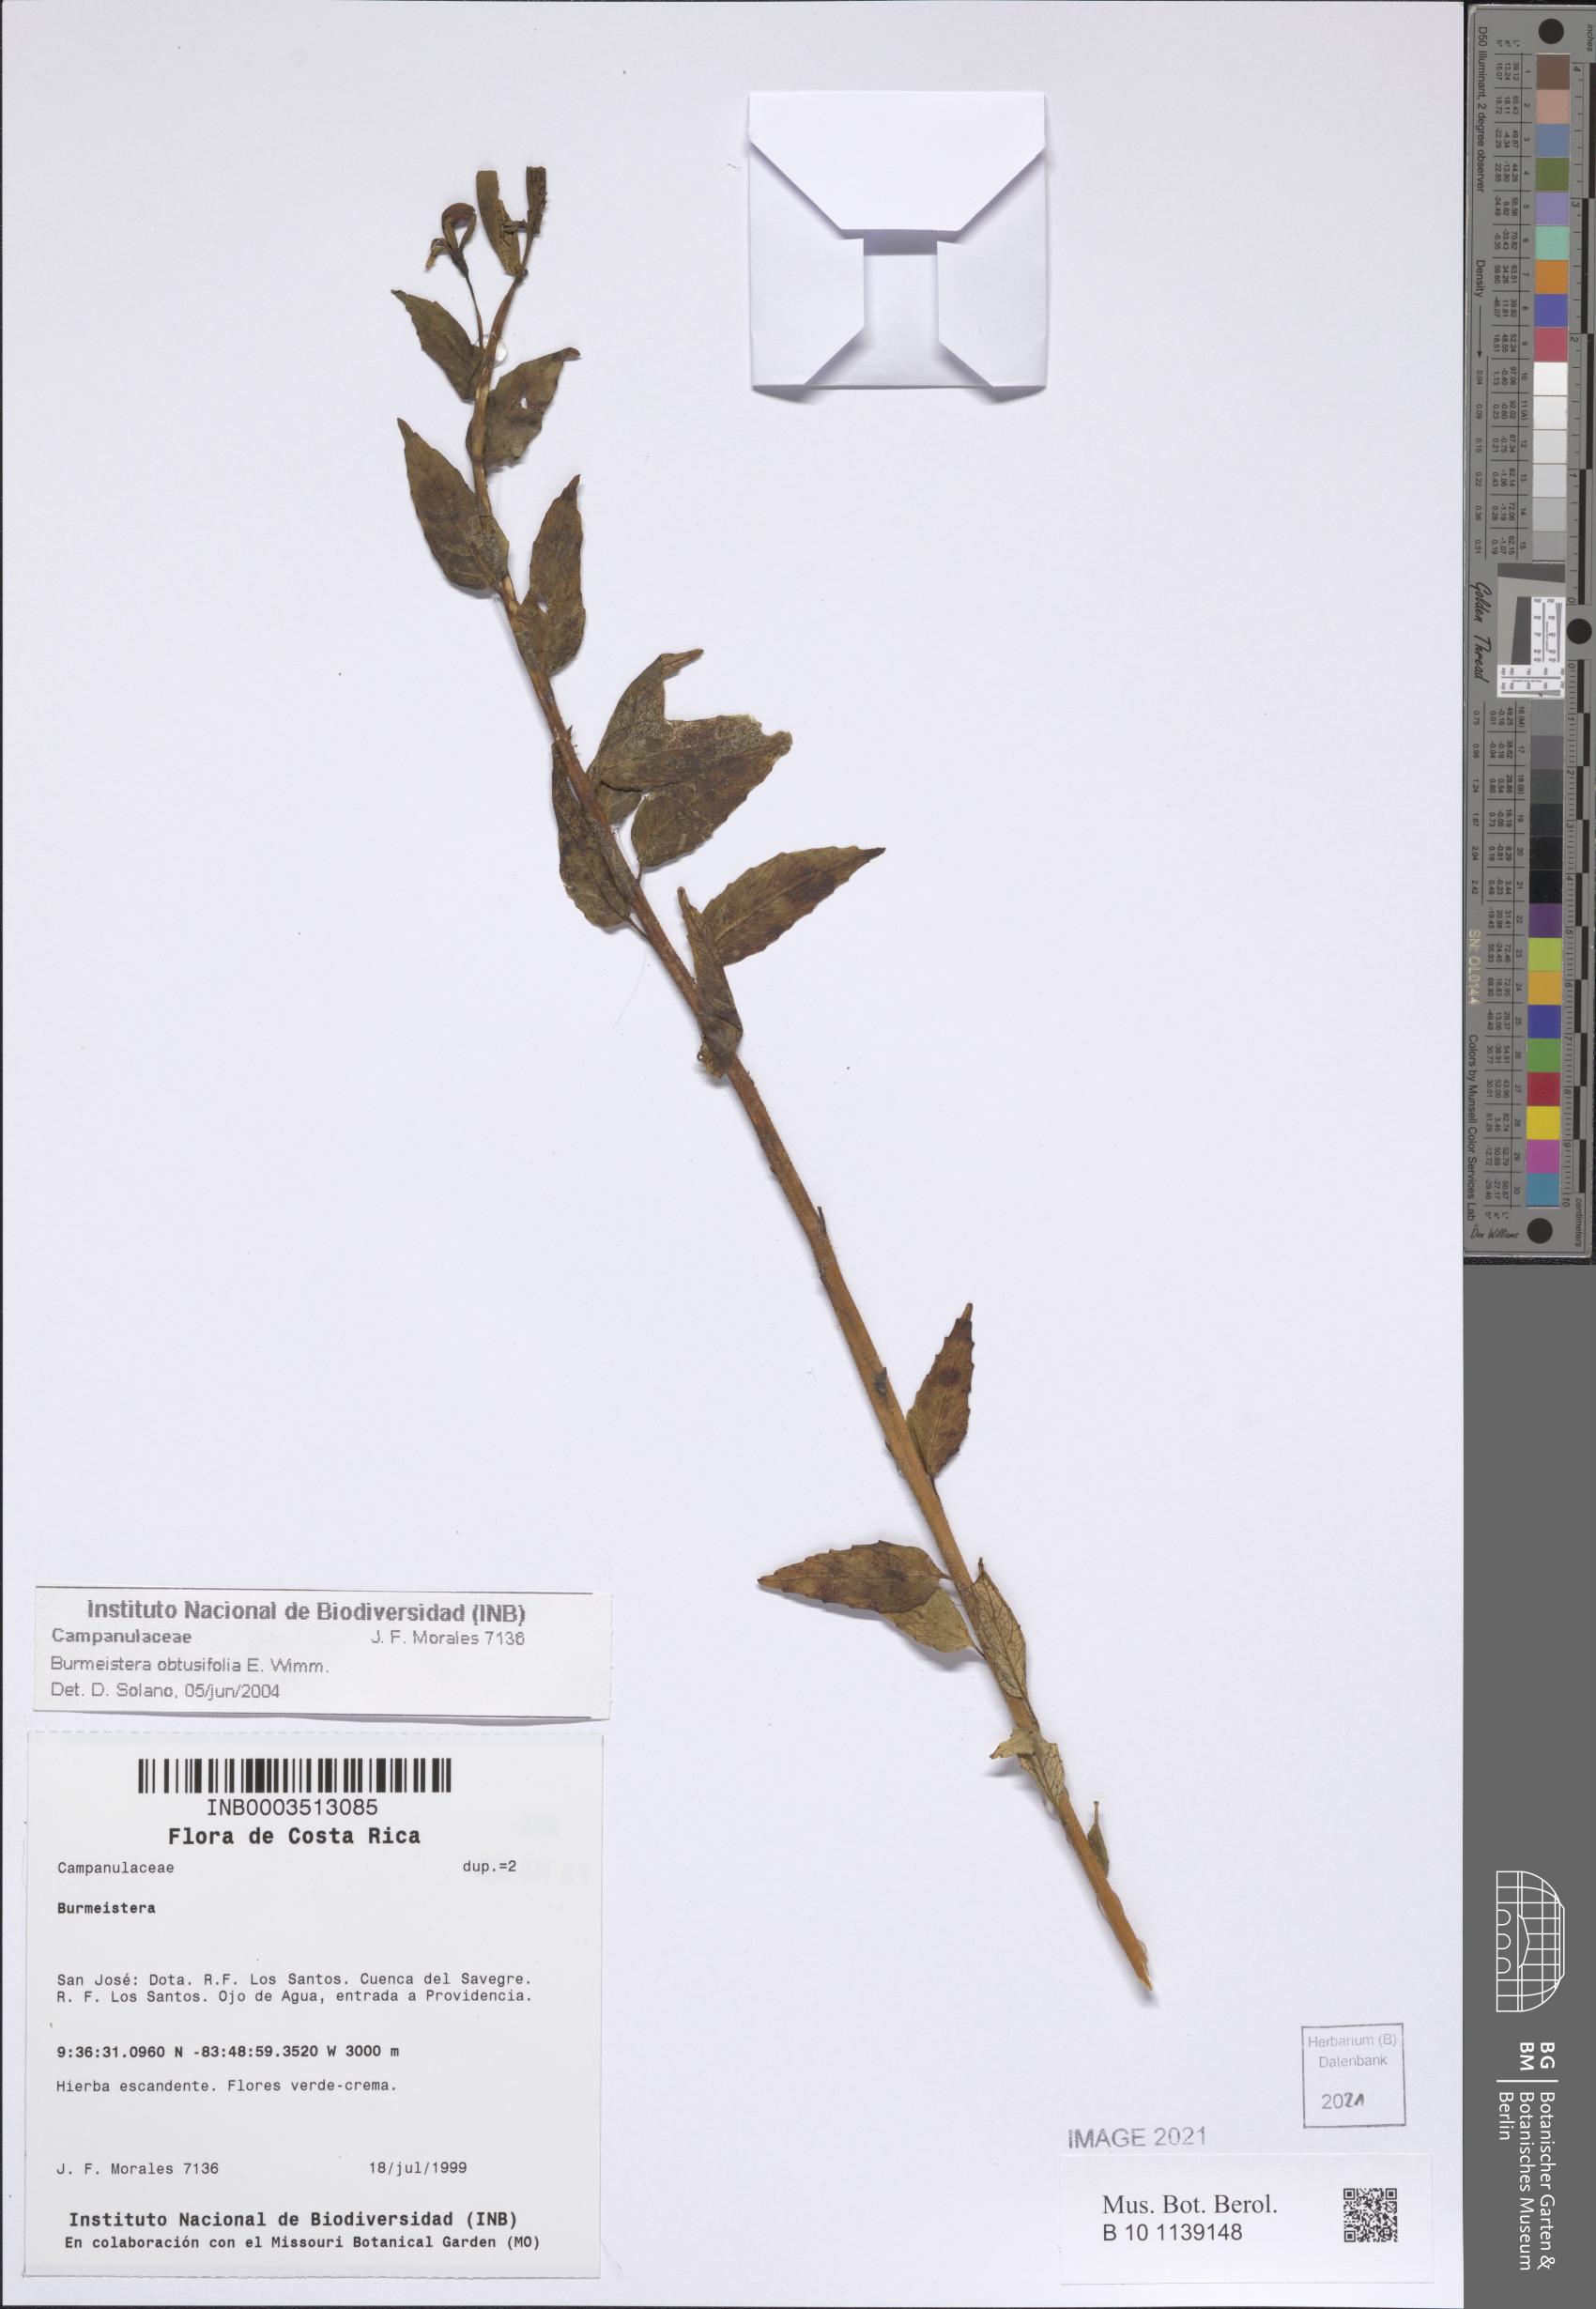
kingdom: Plantae
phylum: Tracheophyta
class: Magnoliopsida
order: Asterales
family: Campanulaceae
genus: Burmeistera
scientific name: Burmeistera obtusifolia
